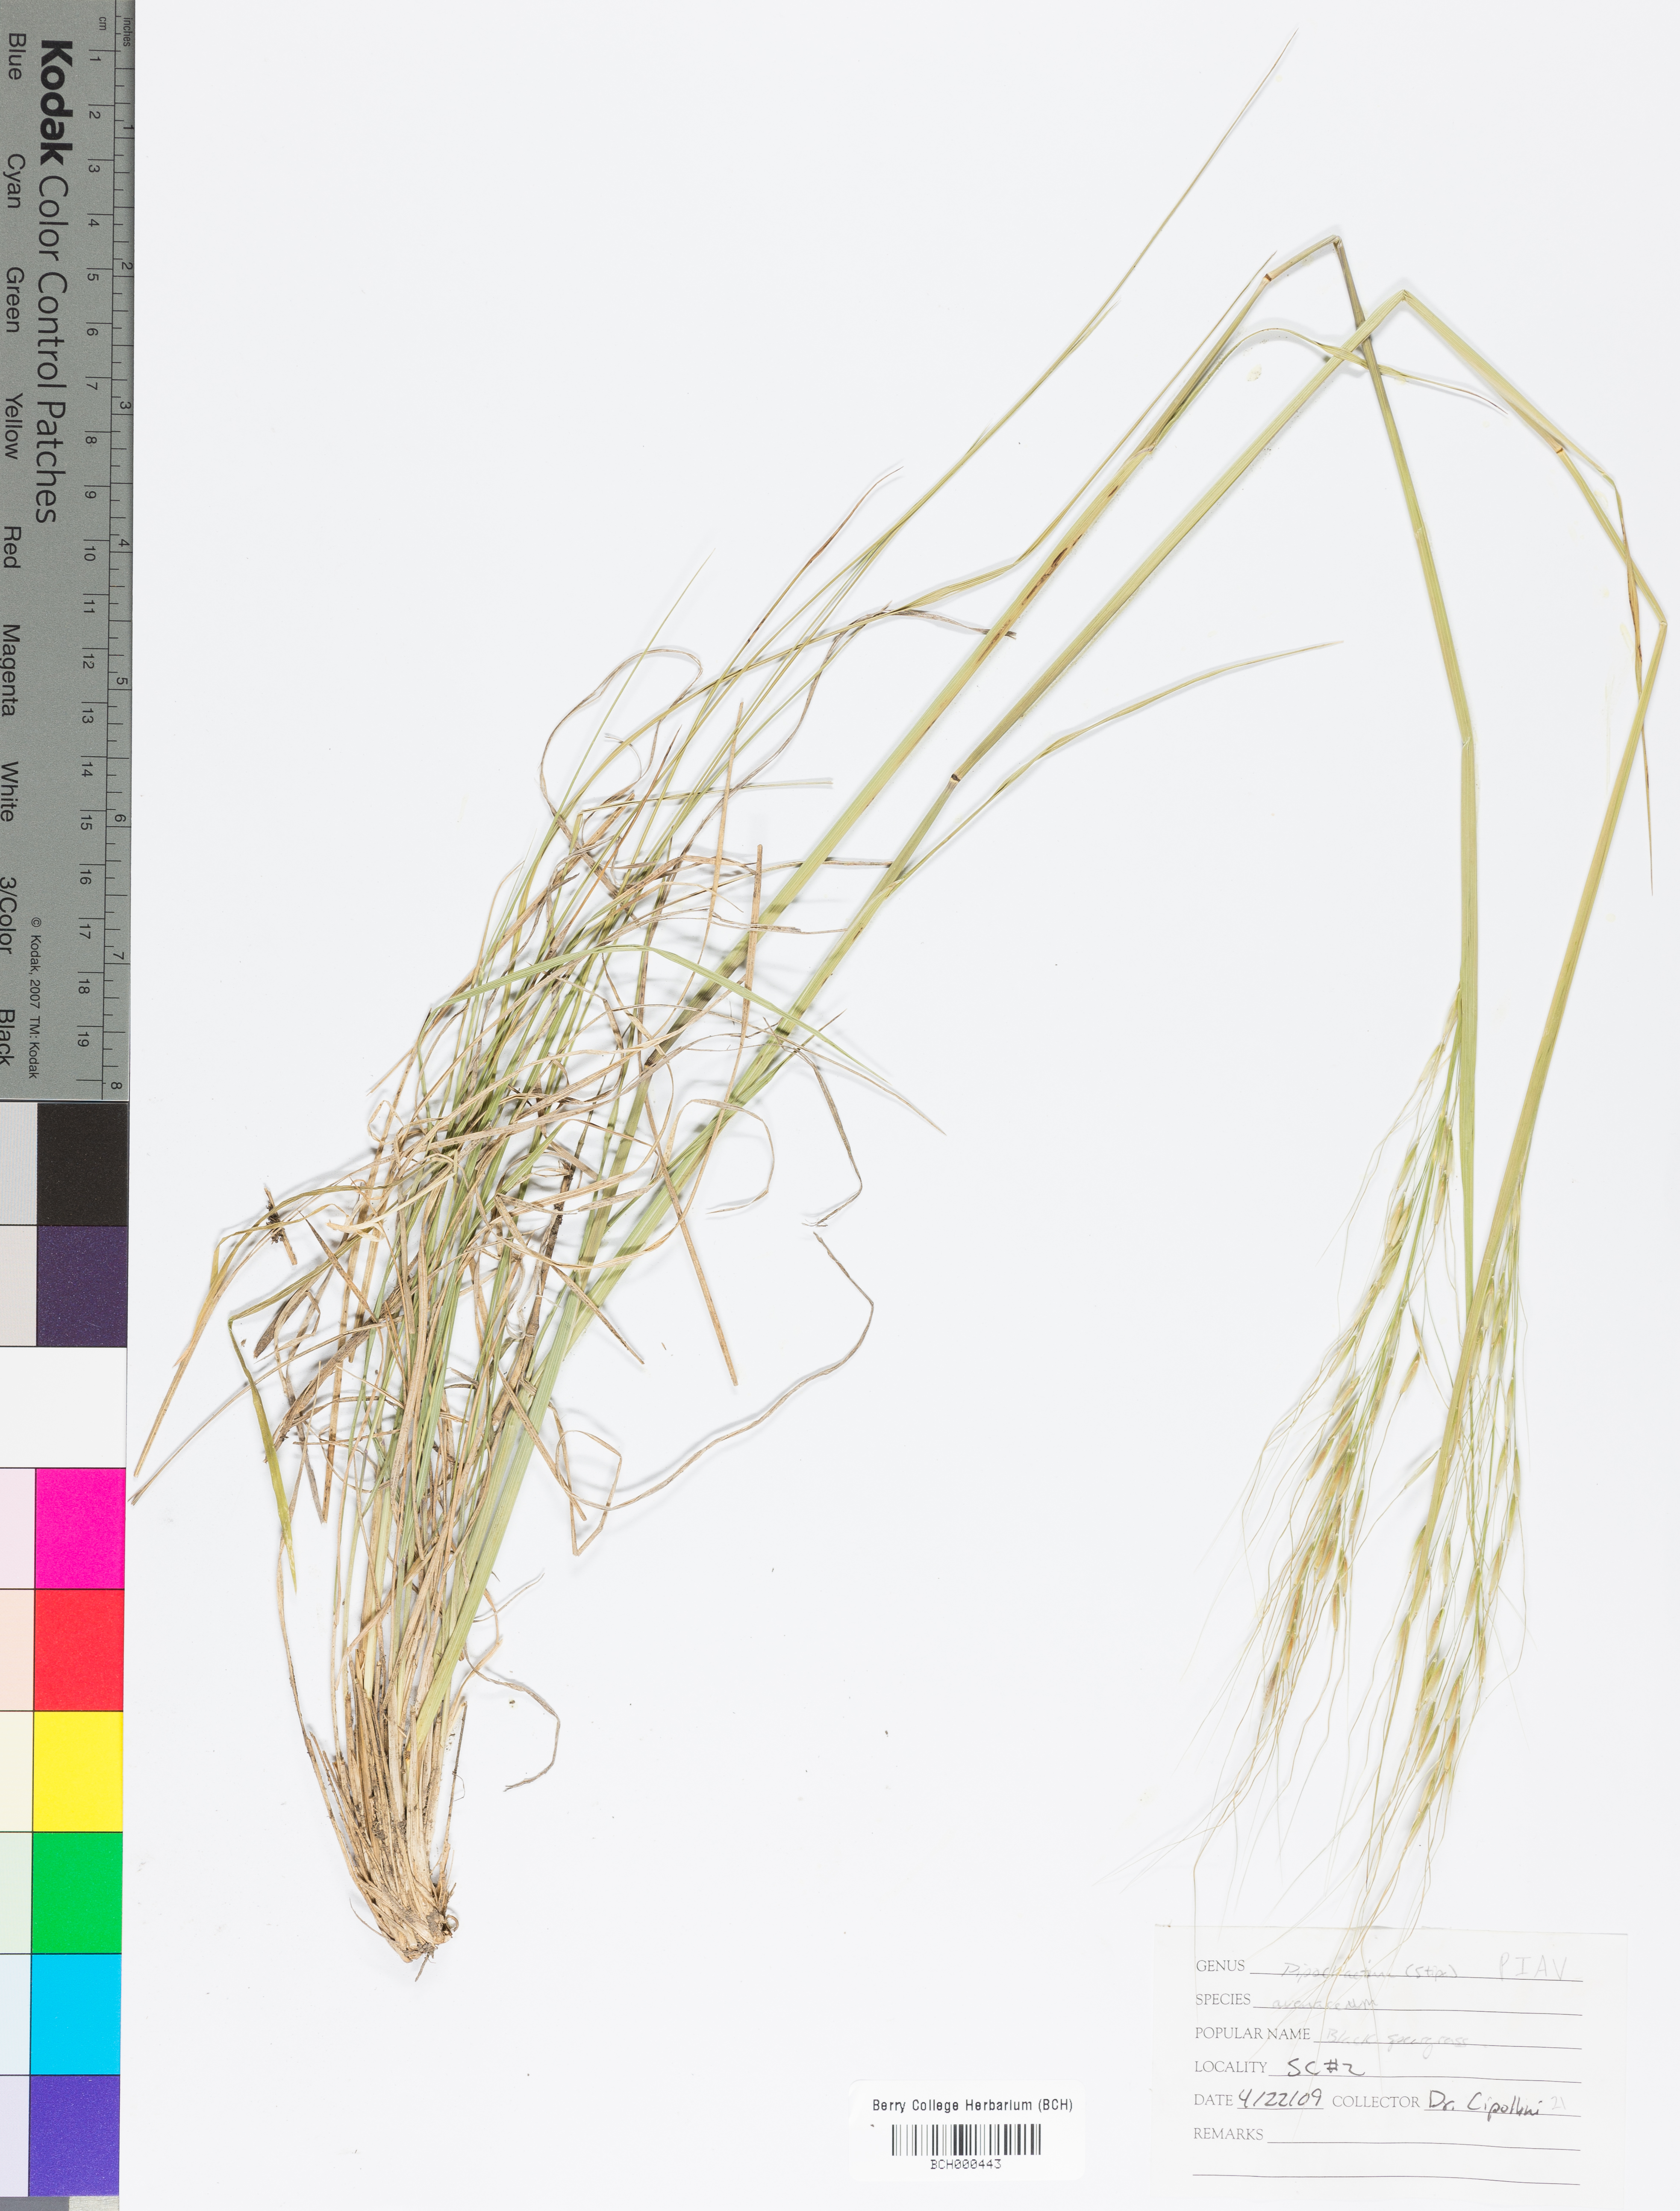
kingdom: Plantae
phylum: Tracheophyta
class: Liliopsida
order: Poales
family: Poaceae
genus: Piptochaetium
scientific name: Piptochaetium avenaceum
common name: Black bunchgrass
